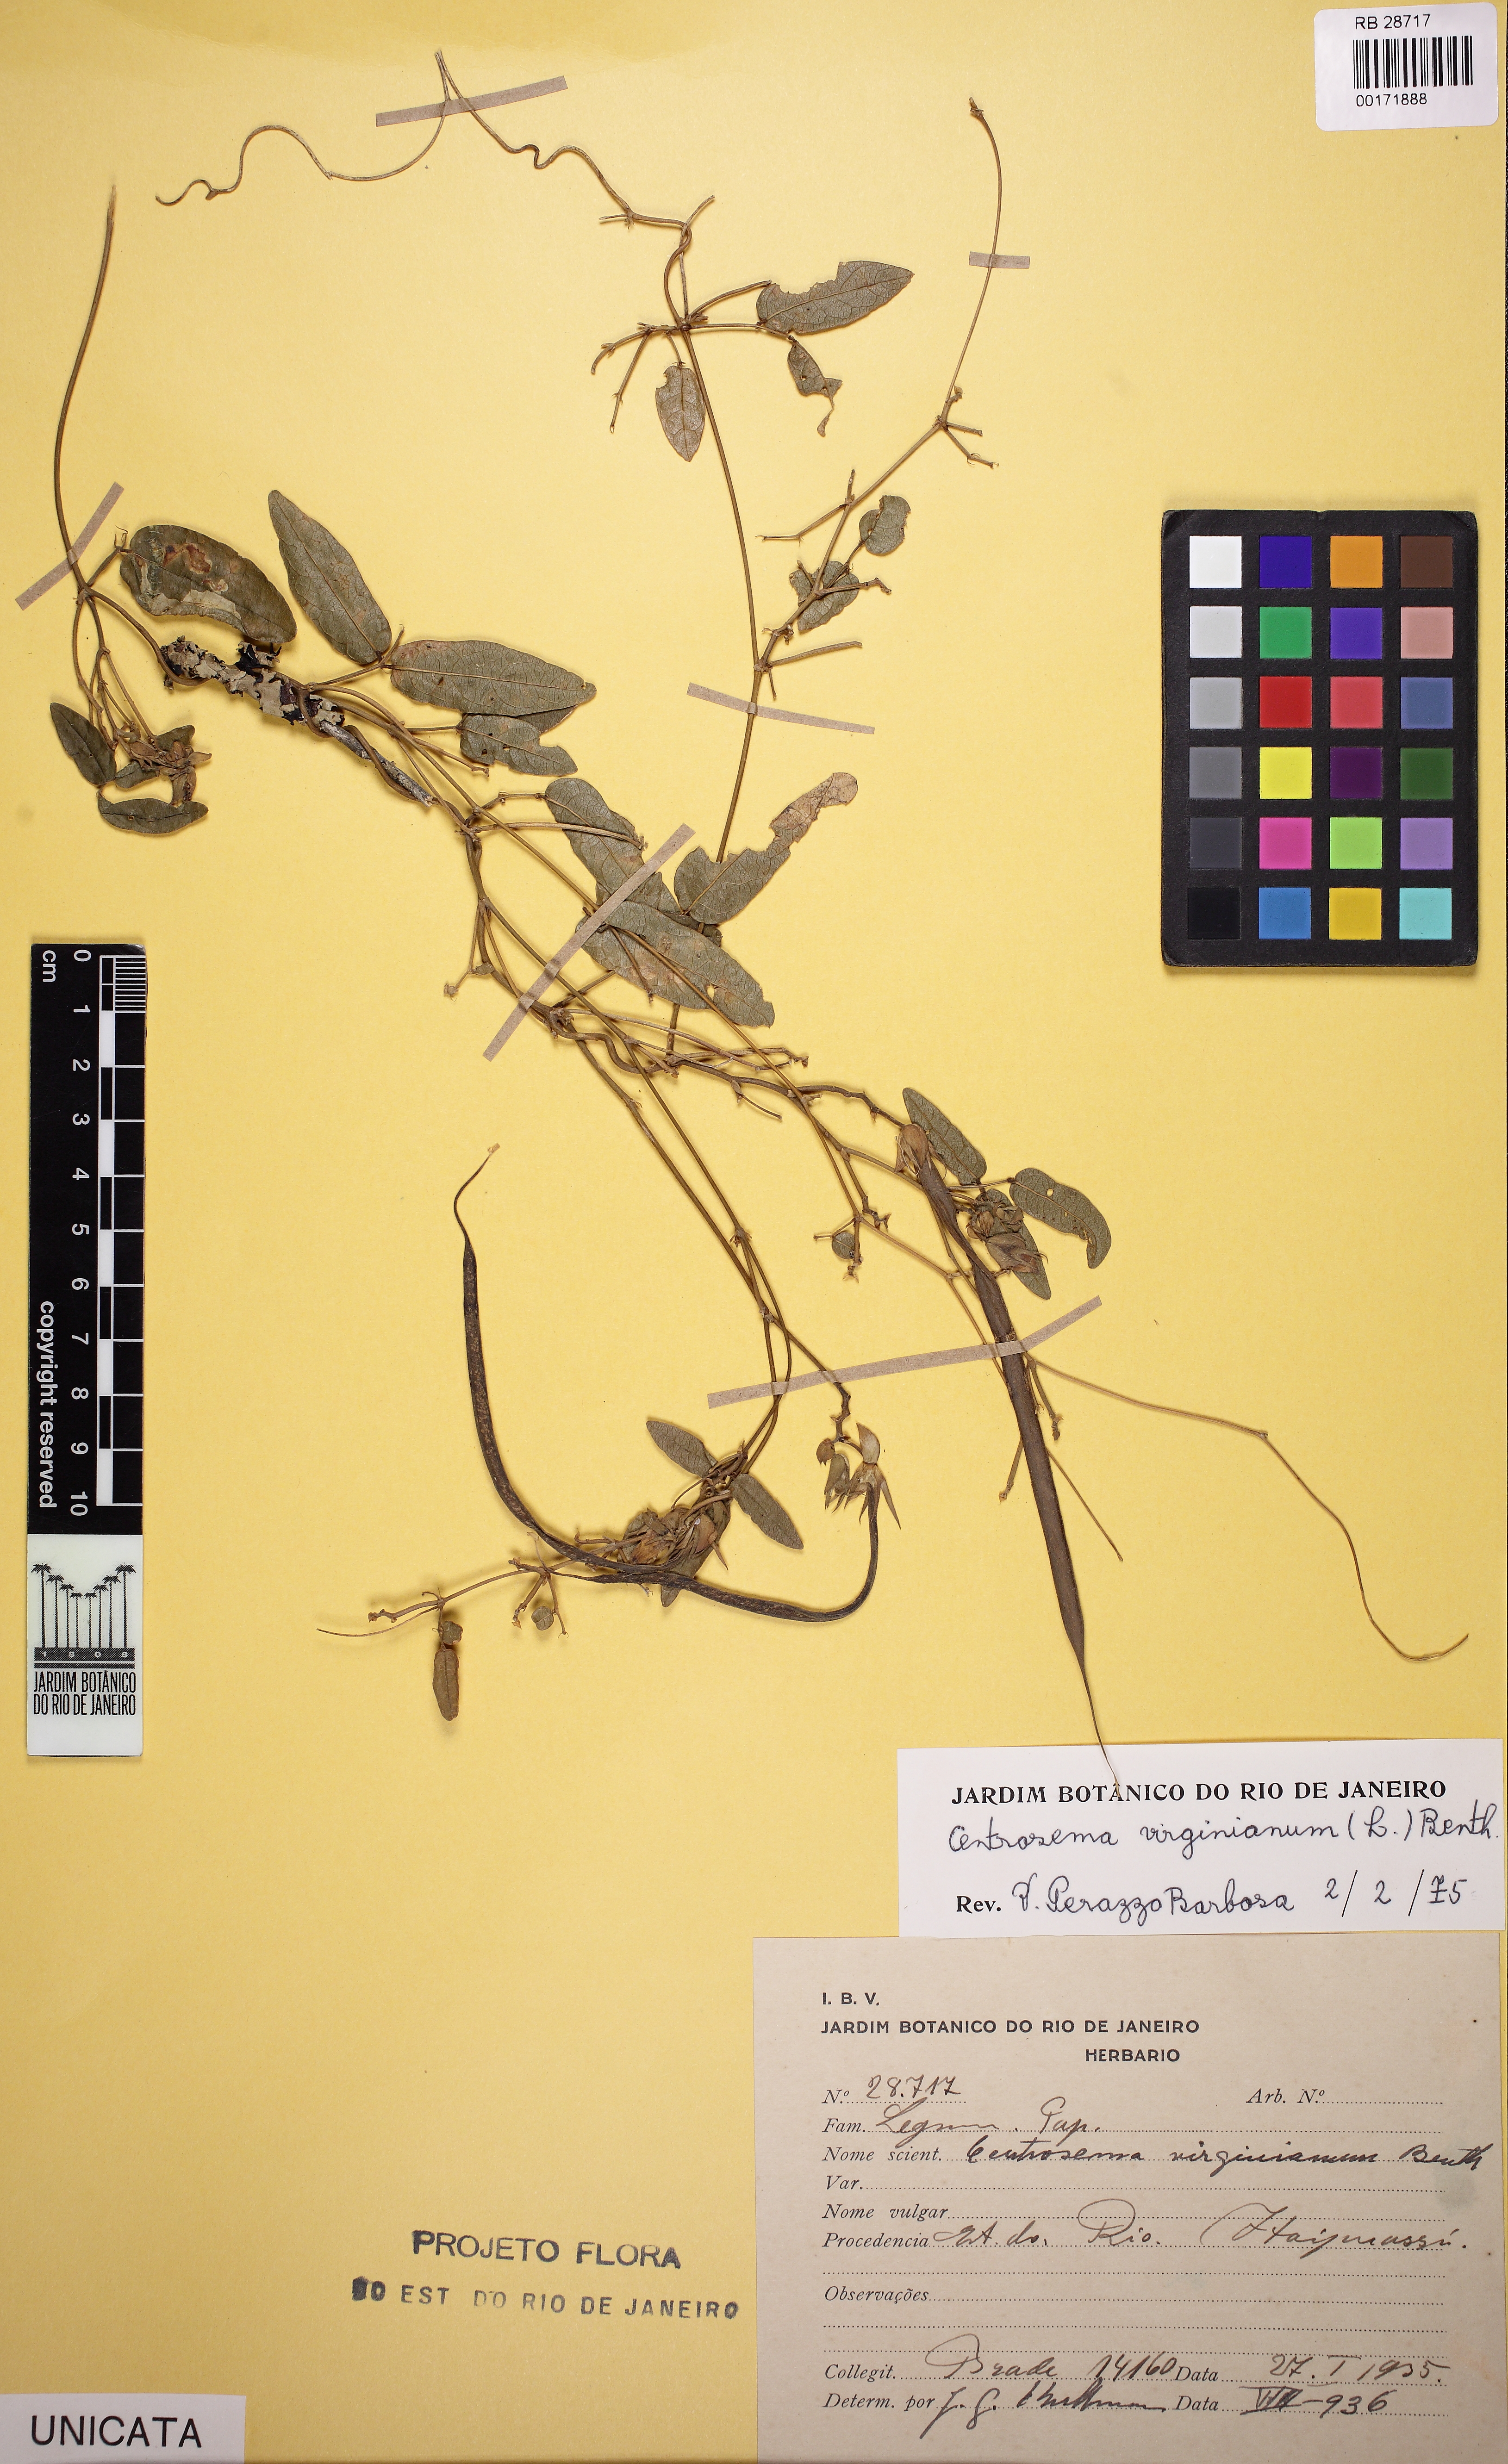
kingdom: Plantae
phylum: Tracheophyta
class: Magnoliopsida
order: Fabales
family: Fabaceae
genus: Centrosema
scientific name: Centrosema virginianum
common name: Butterfly-pea
